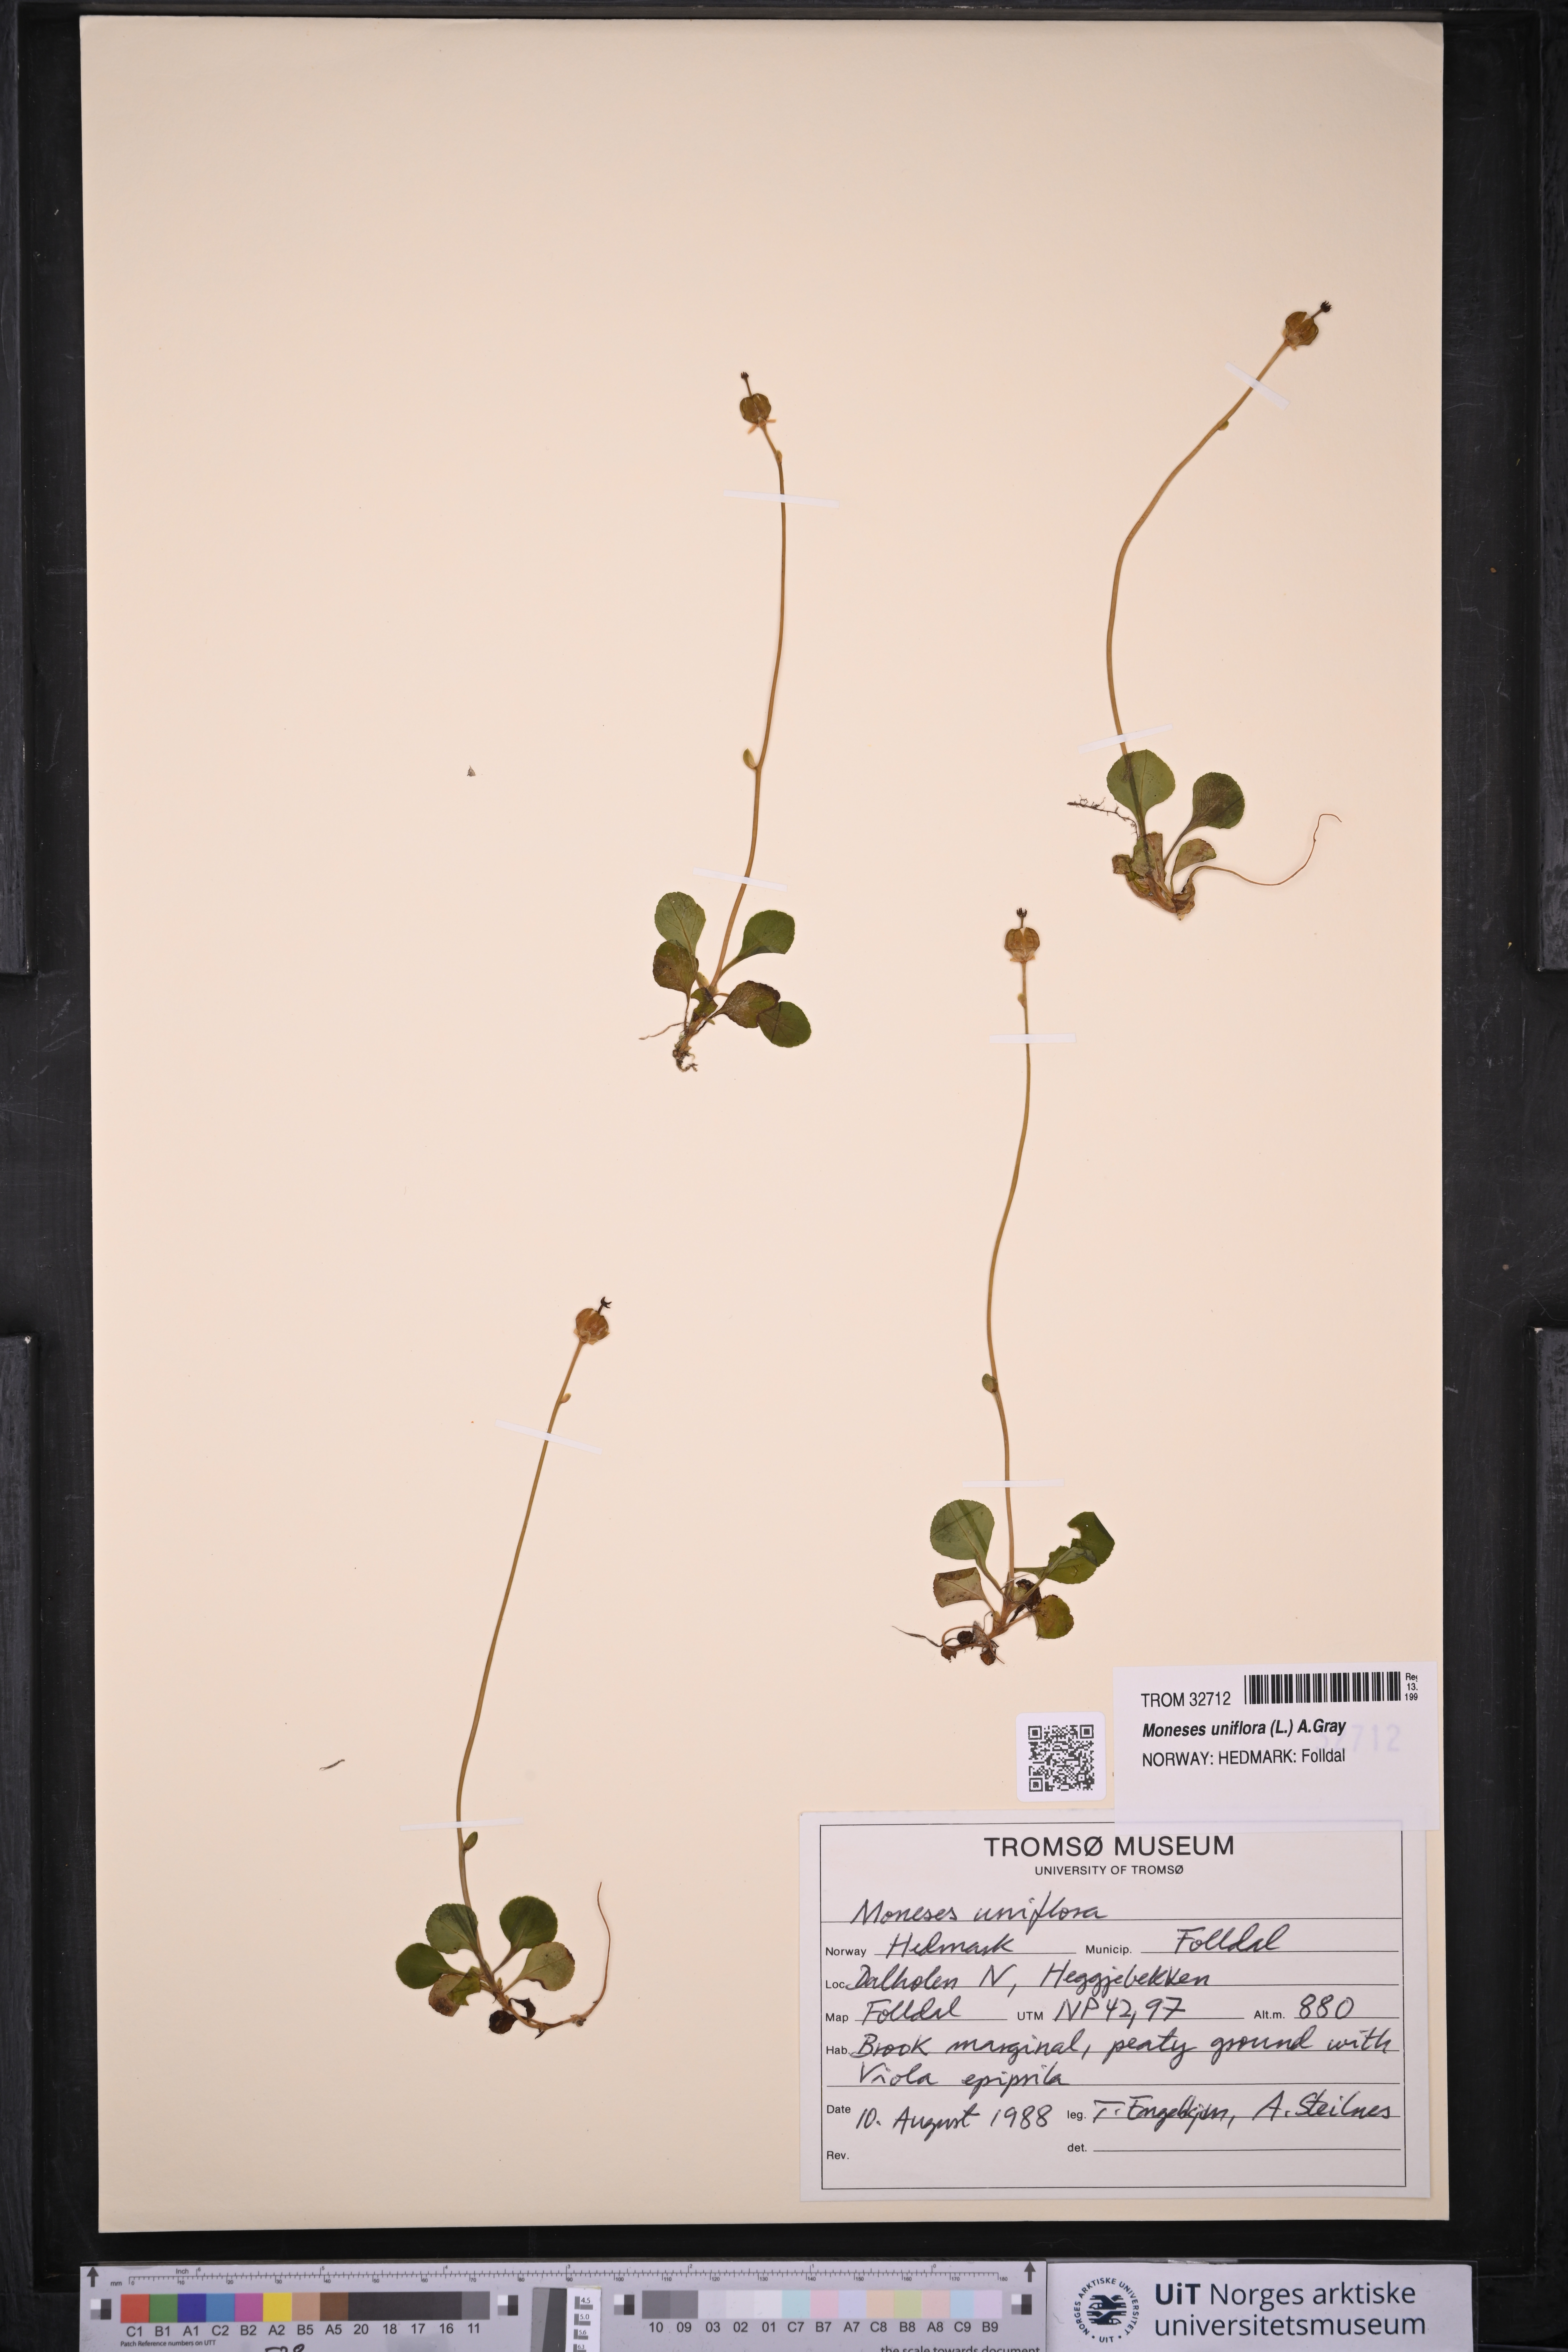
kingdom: Plantae
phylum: Tracheophyta
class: Magnoliopsida
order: Ericales
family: Ericaceae
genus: Moneses
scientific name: Moneses uniflora
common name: One-flowered wintergreen
